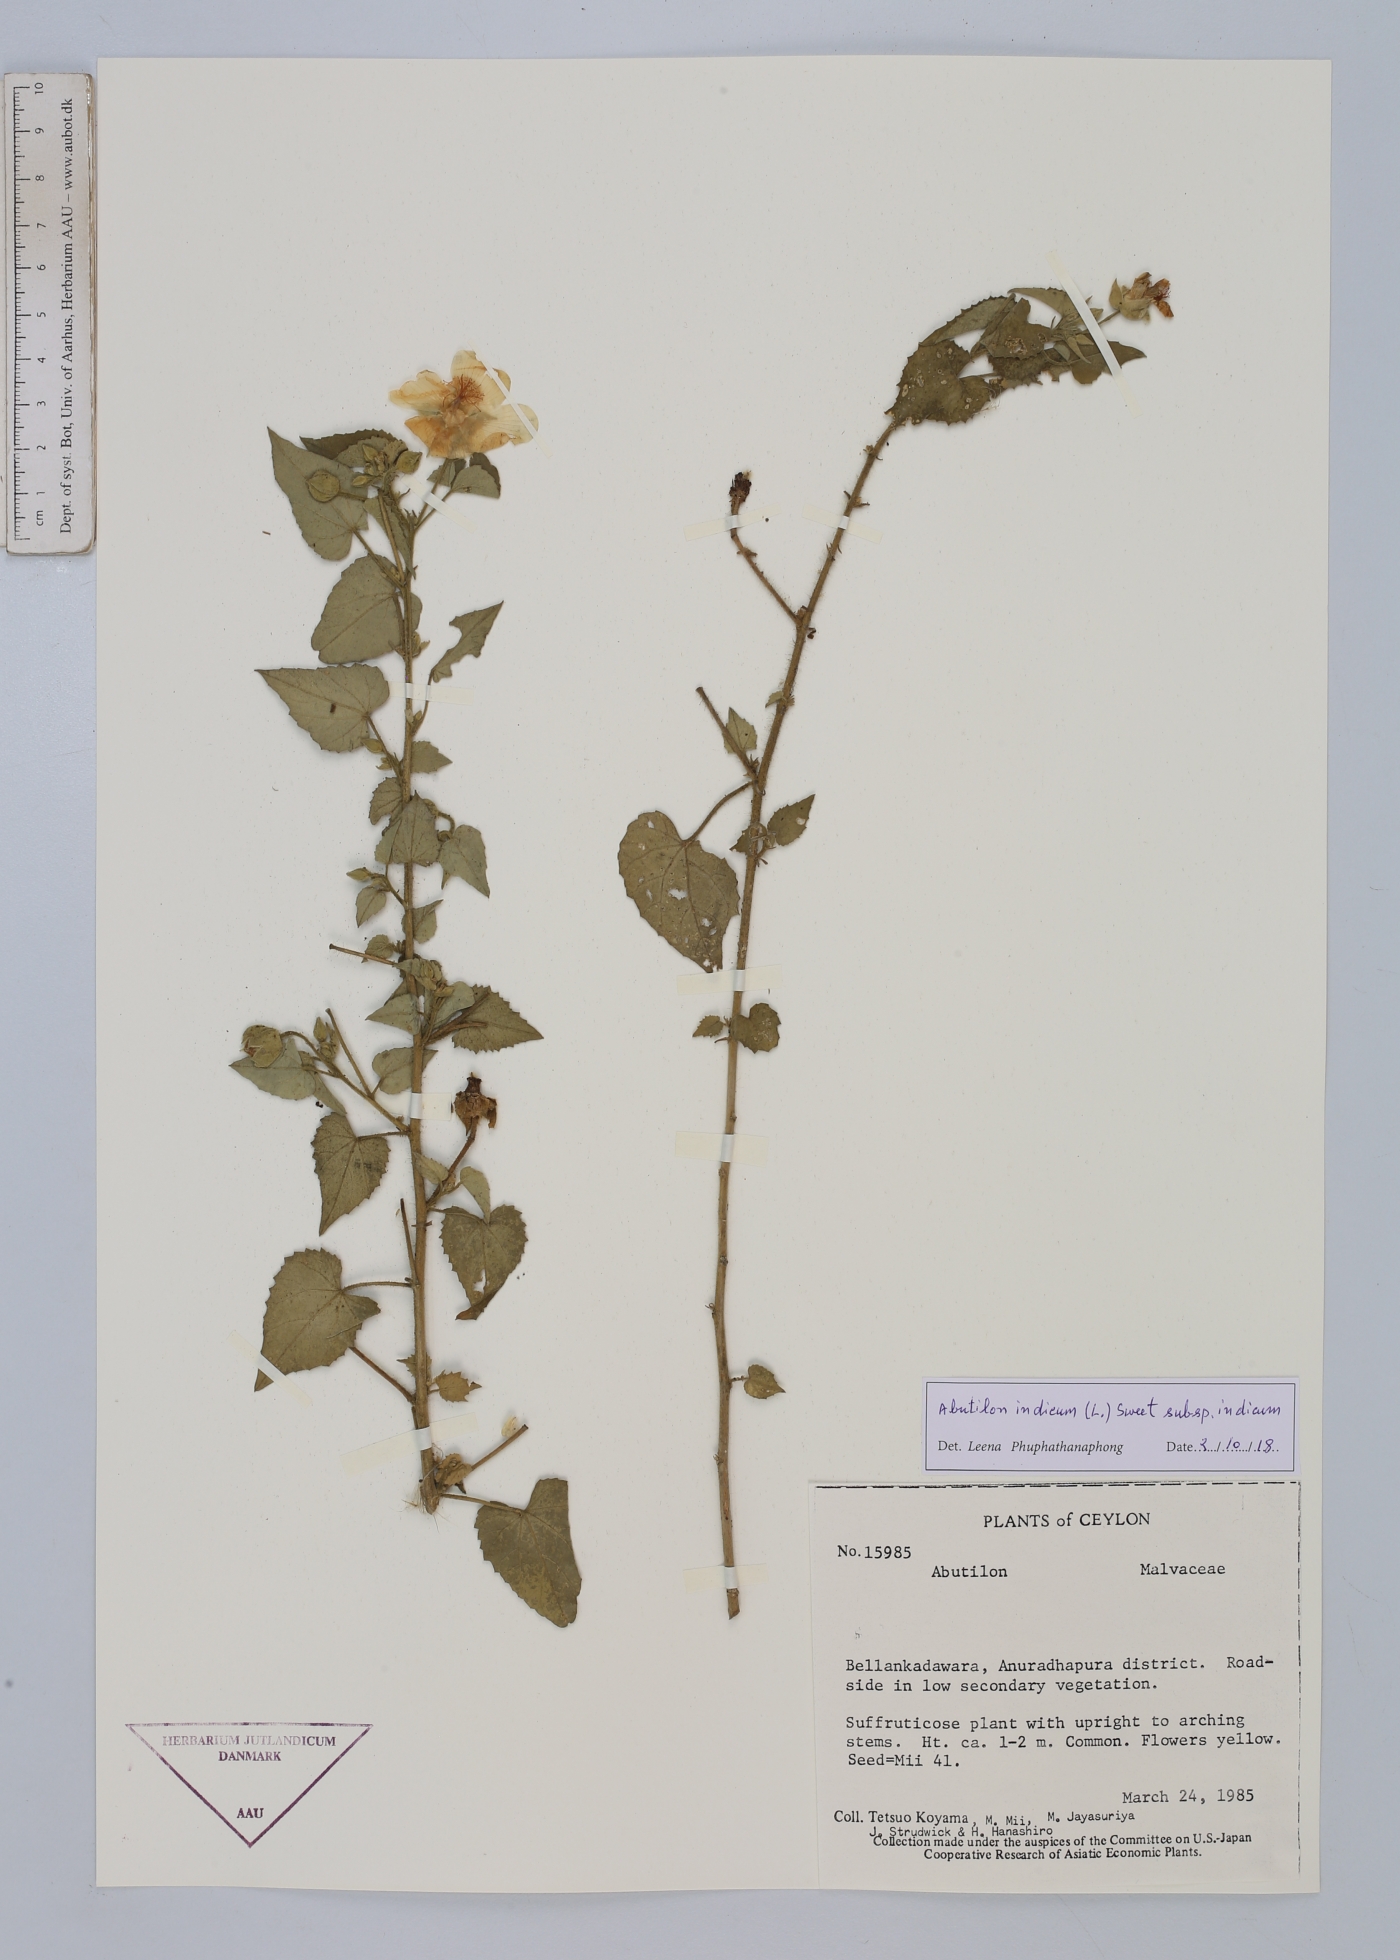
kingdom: Plantae
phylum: Tracheophyta
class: Magnoliopsida
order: Malvales
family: Malvaceae
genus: Abutilon
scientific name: Abutilon indicum
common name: Indian abutilon
